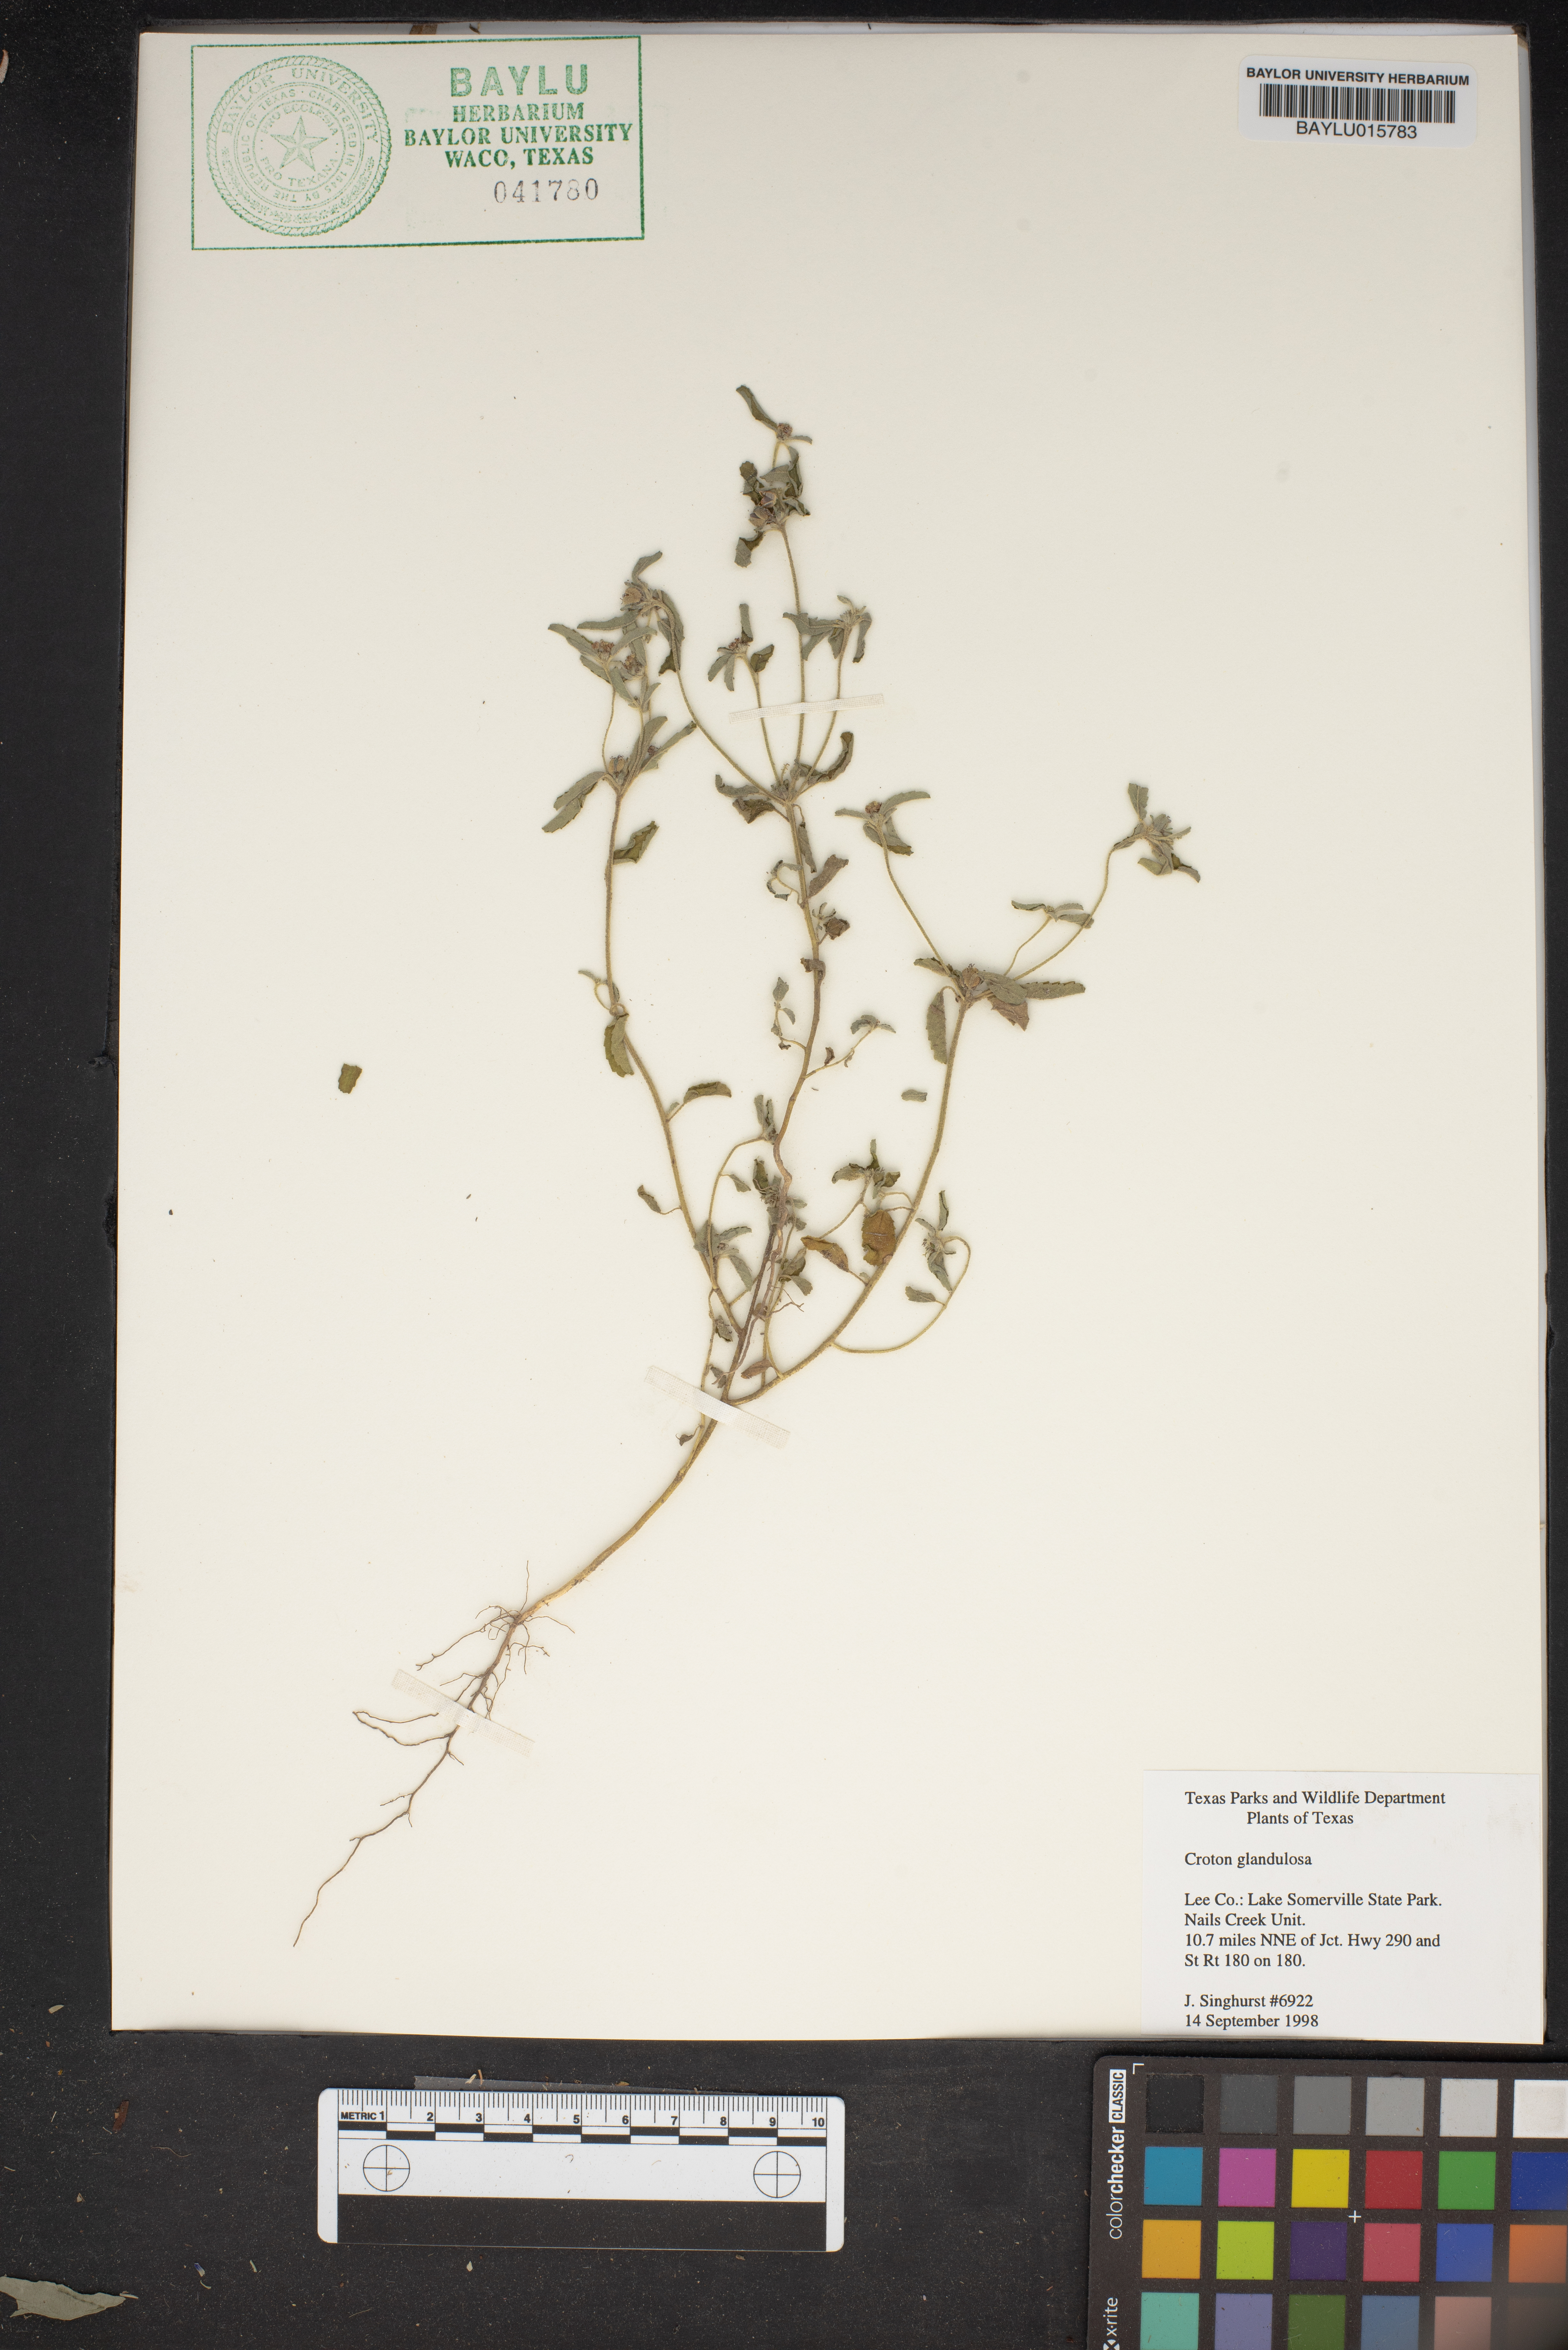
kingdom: Plantae
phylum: Tracheophyta
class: Magnoliopsida
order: Malpighiales
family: Euphorbiaceae
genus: Croton
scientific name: Croton glandulosus
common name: Tropic croton
